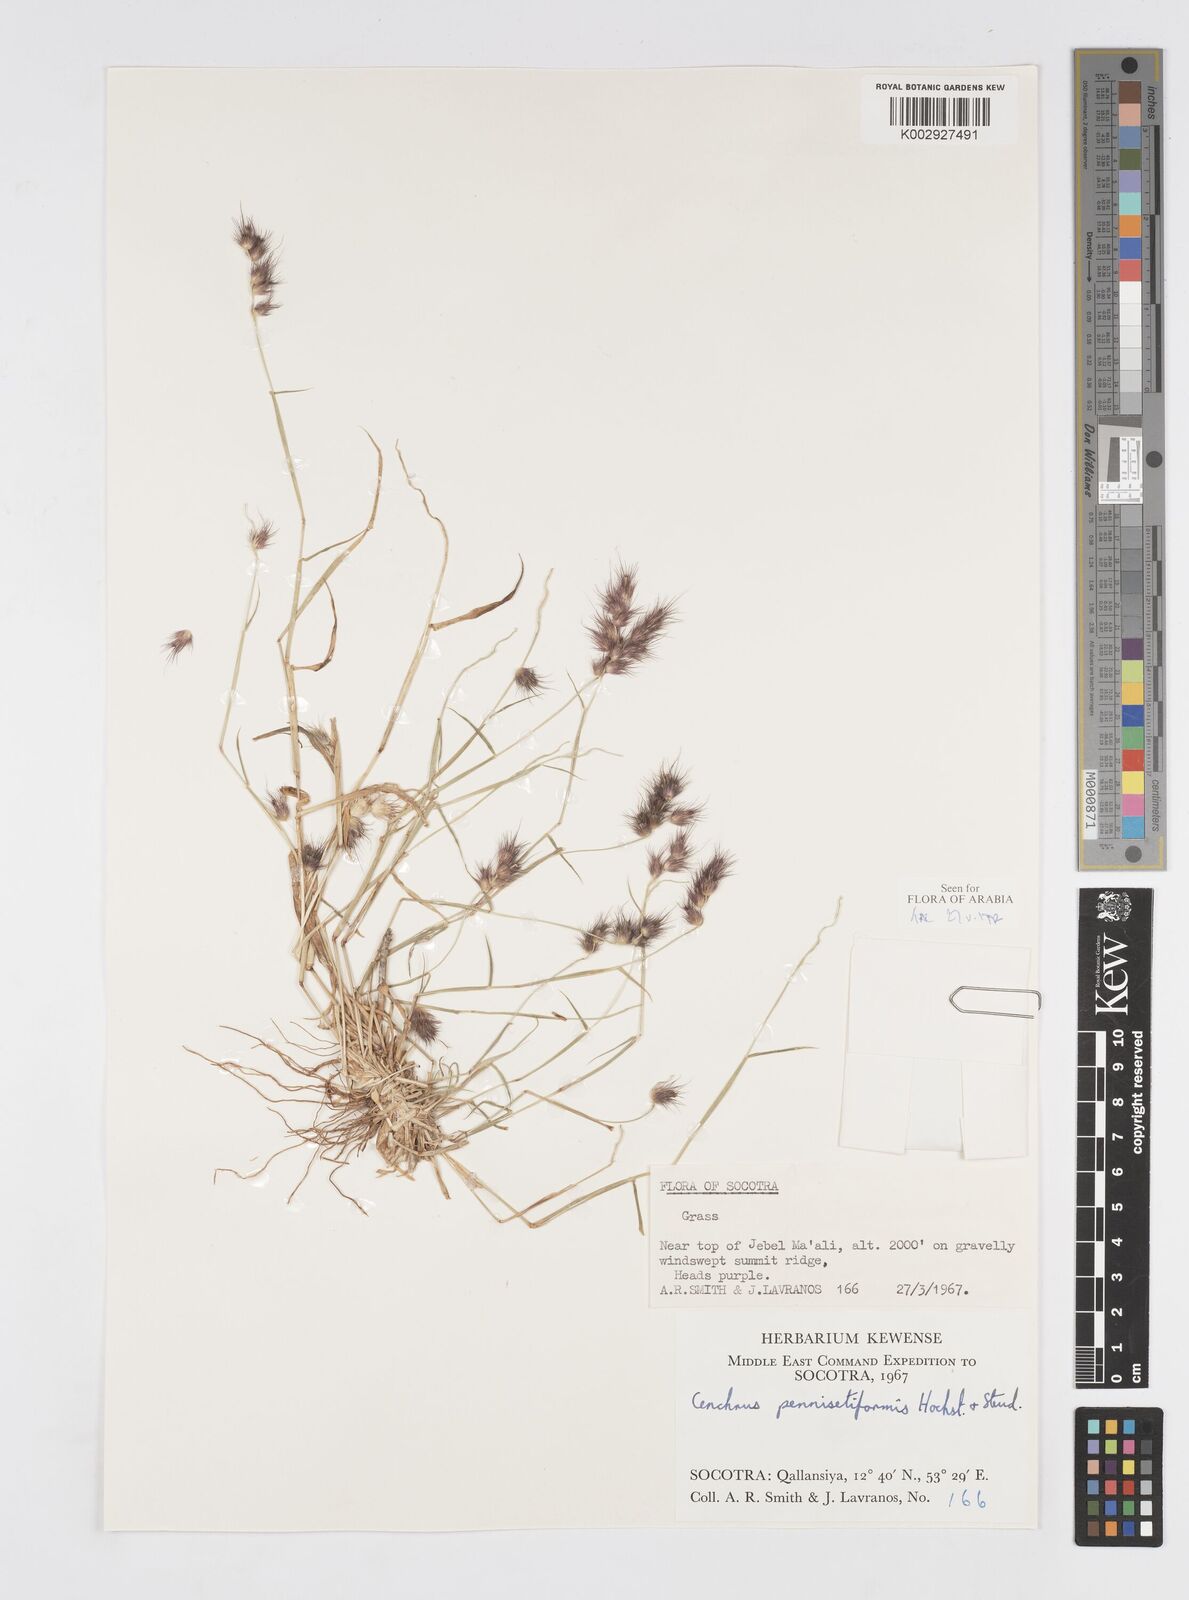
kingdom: Plantae
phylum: Tracheophyta
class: Liliopsida
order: Poales
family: Poaceae
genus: Cenchrus
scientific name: Cenchrus pennisetiformis
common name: Cloncurry
